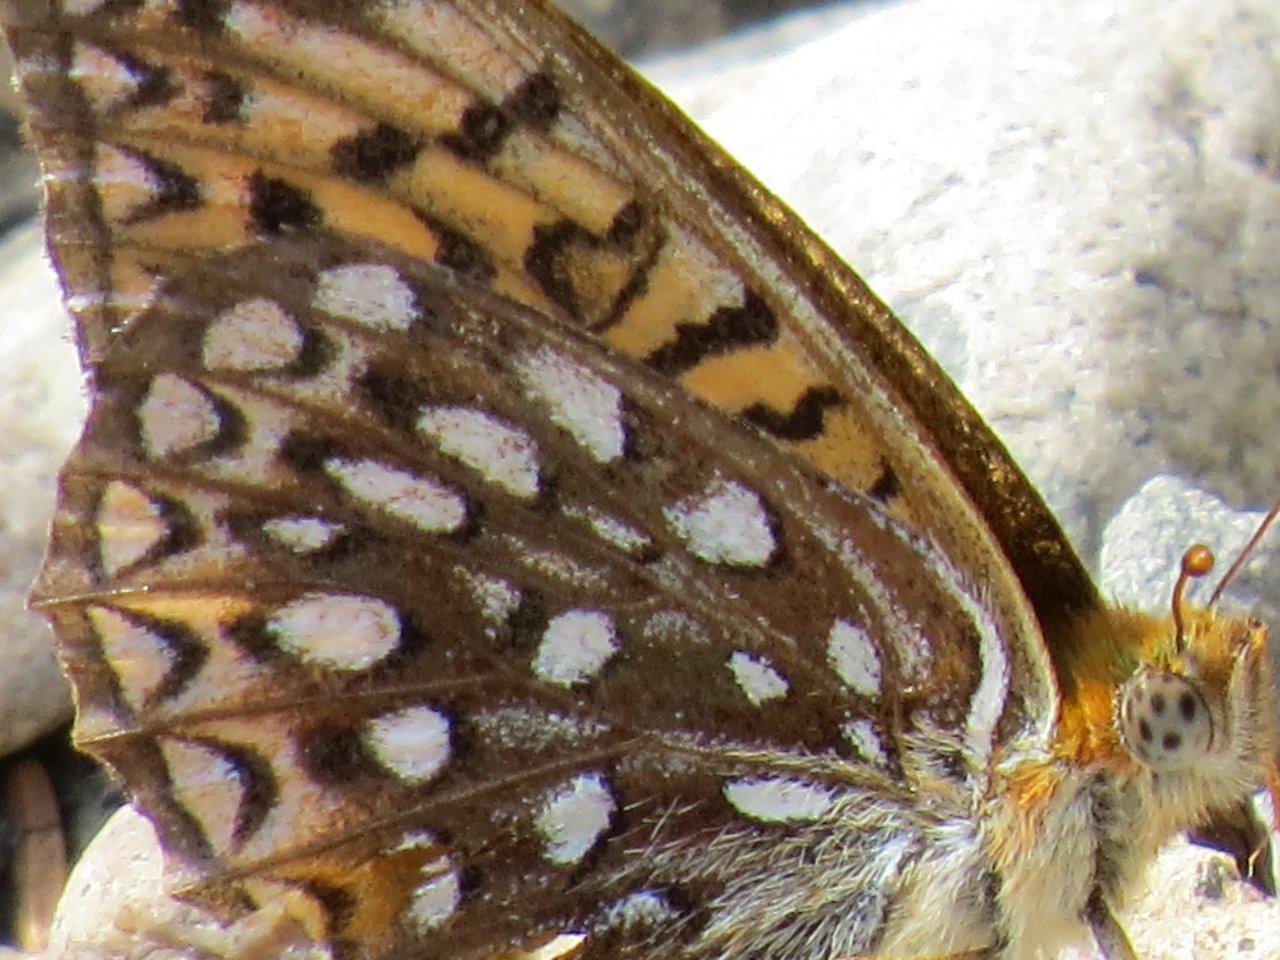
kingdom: Animalia
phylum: Arthropoda
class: Insecta
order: Lepidoptera
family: Nymphalidae
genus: Speyeria
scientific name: Speyeria atlantis
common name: Atlantis Fritillary
